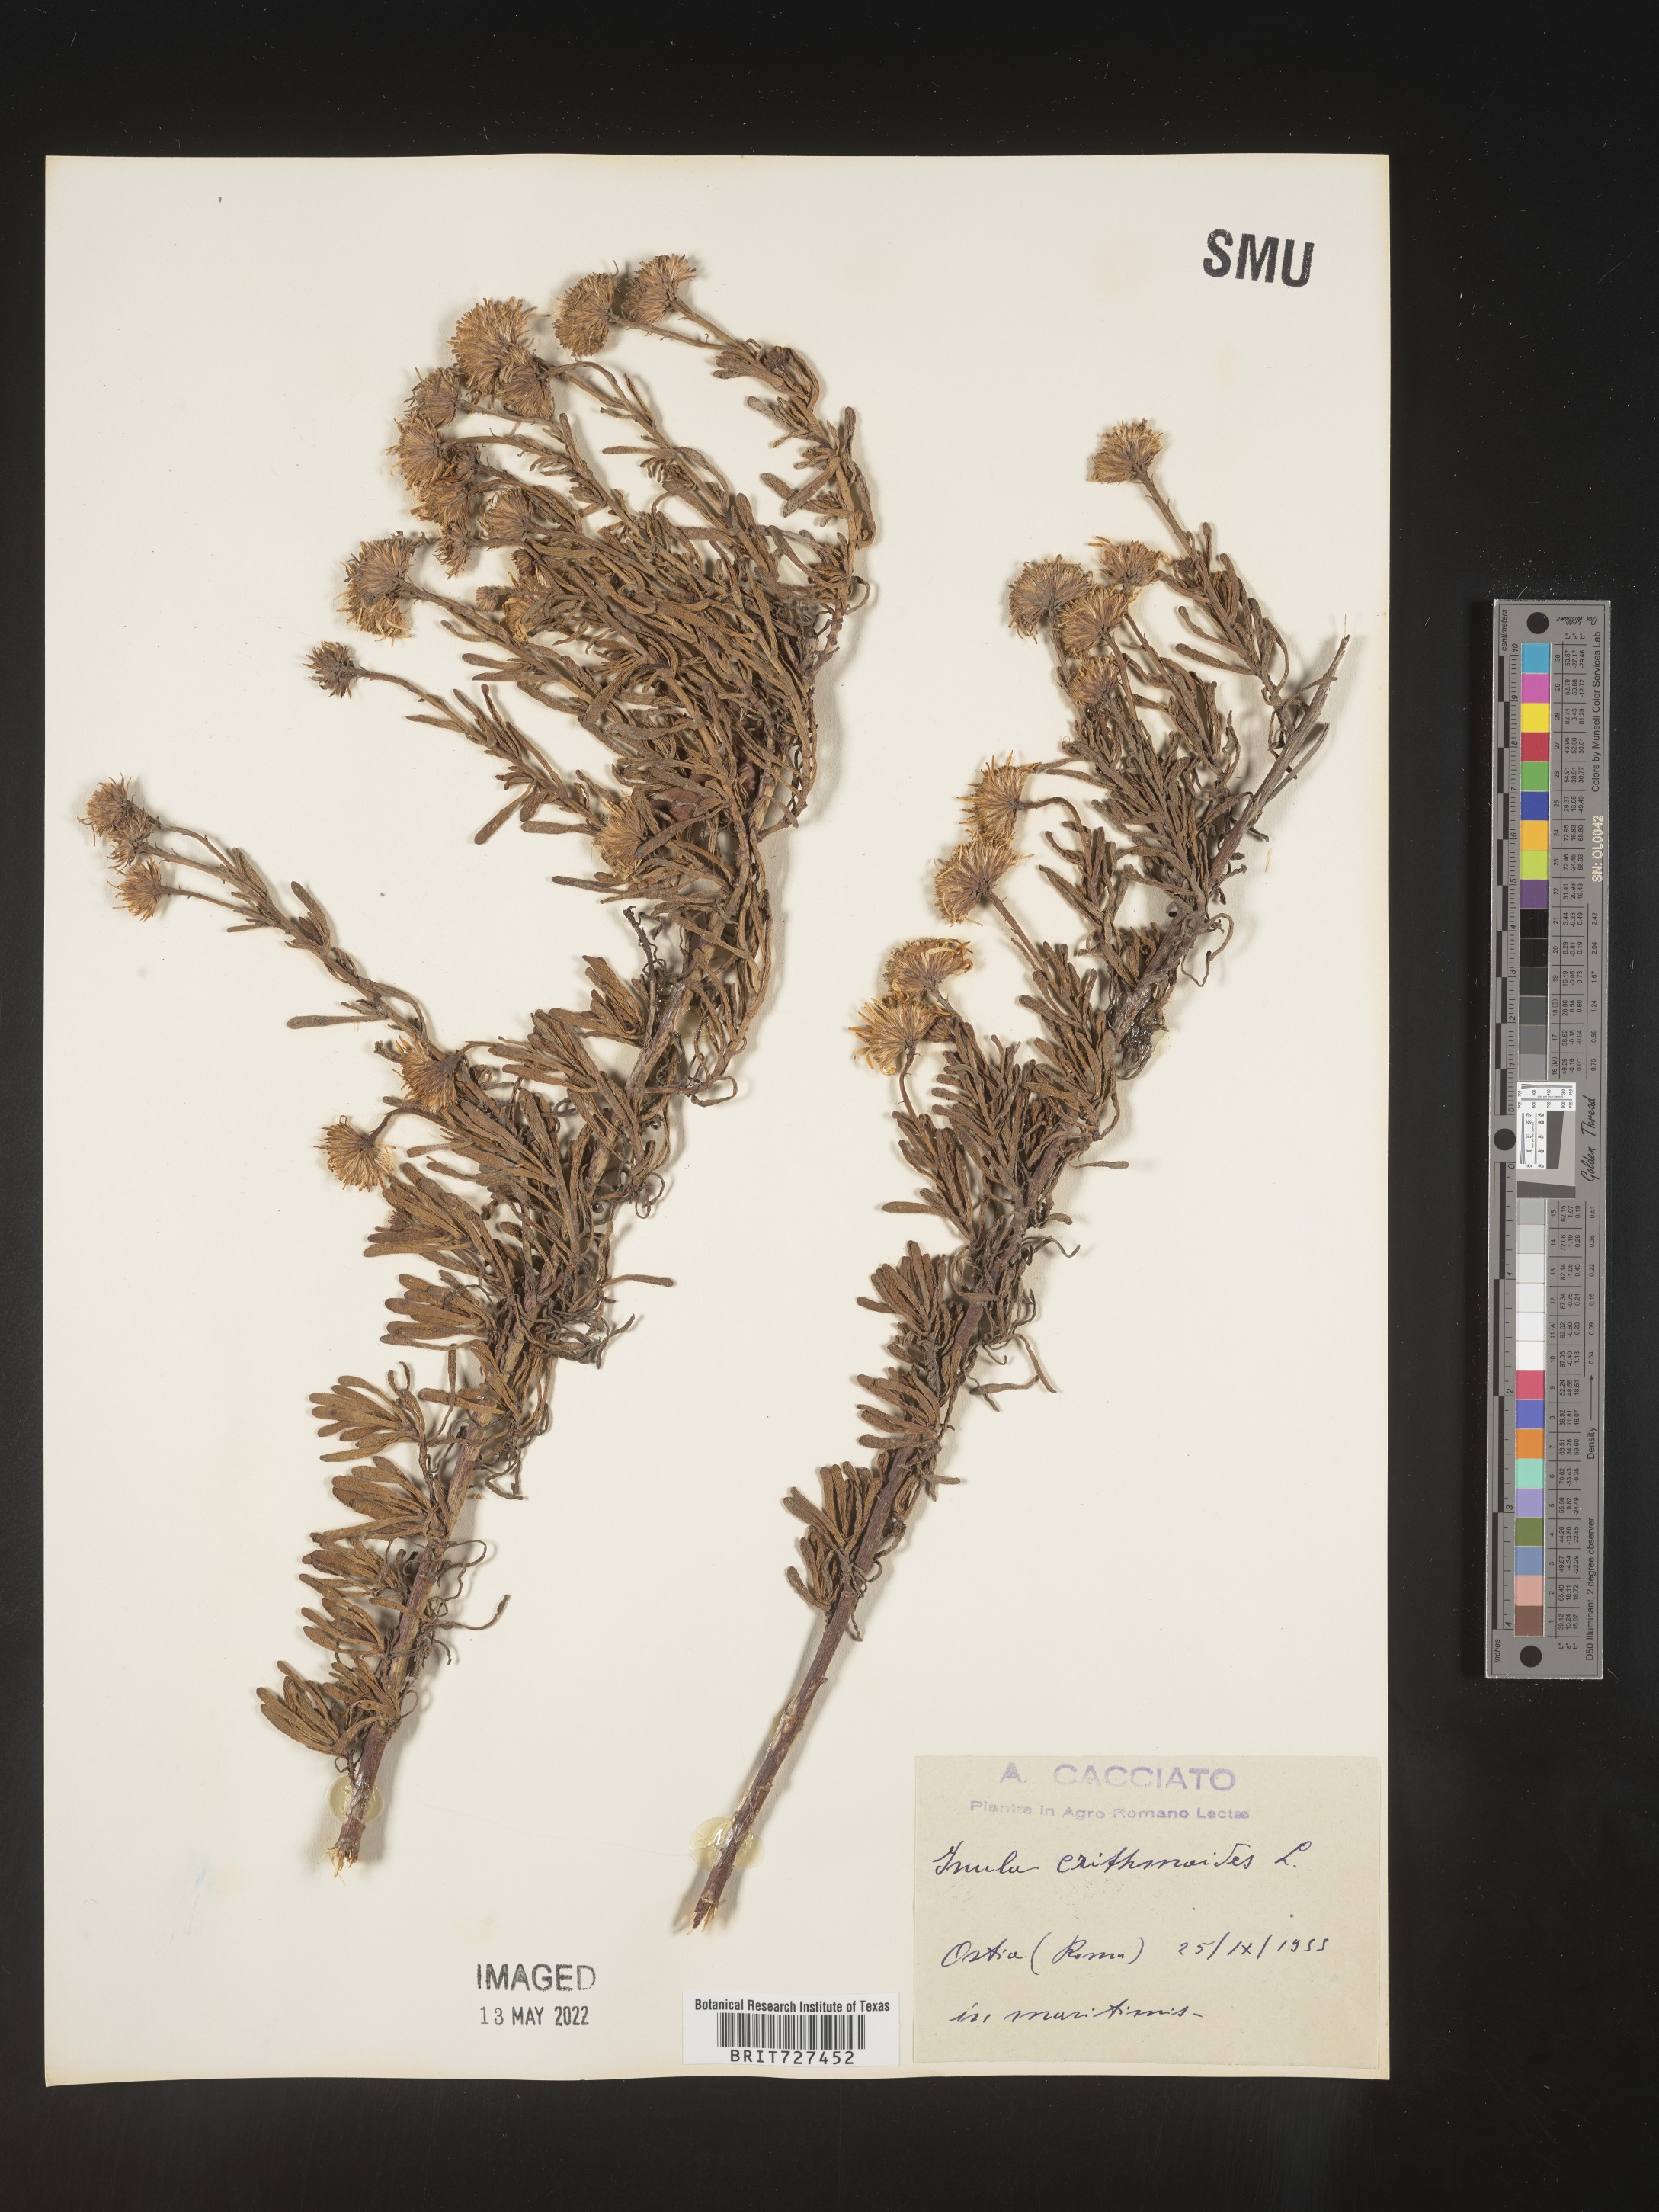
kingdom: Plantae
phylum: Tracheophyta
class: Magnoliopsida
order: Asterales
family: Asteraceae
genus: Inula
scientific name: Inula
